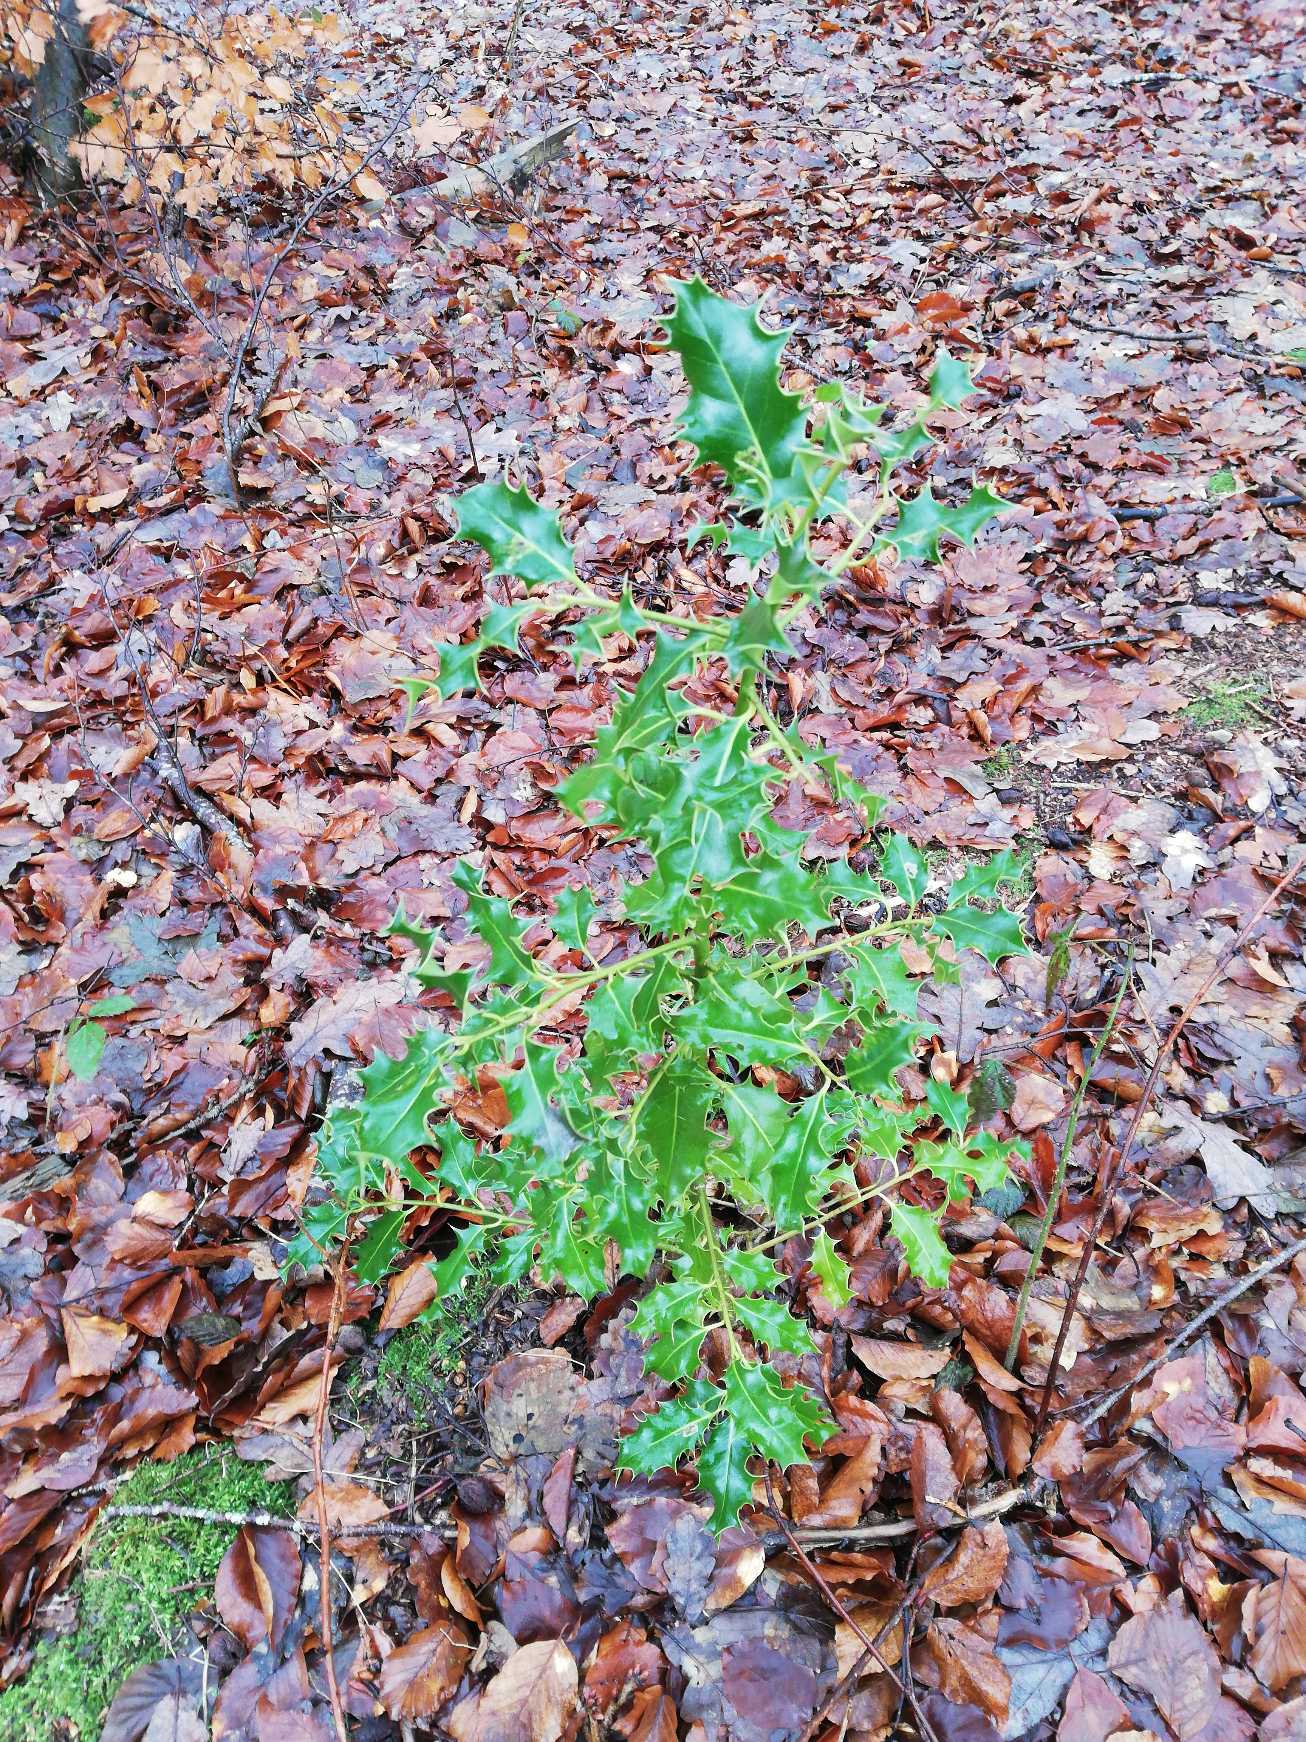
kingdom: Plantae
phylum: Tracheophyta
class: Magnoliopsida
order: Aquifoliales
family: Aquifoliaceae
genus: Ilex
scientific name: Ilex aquifolium
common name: Kristtorn
